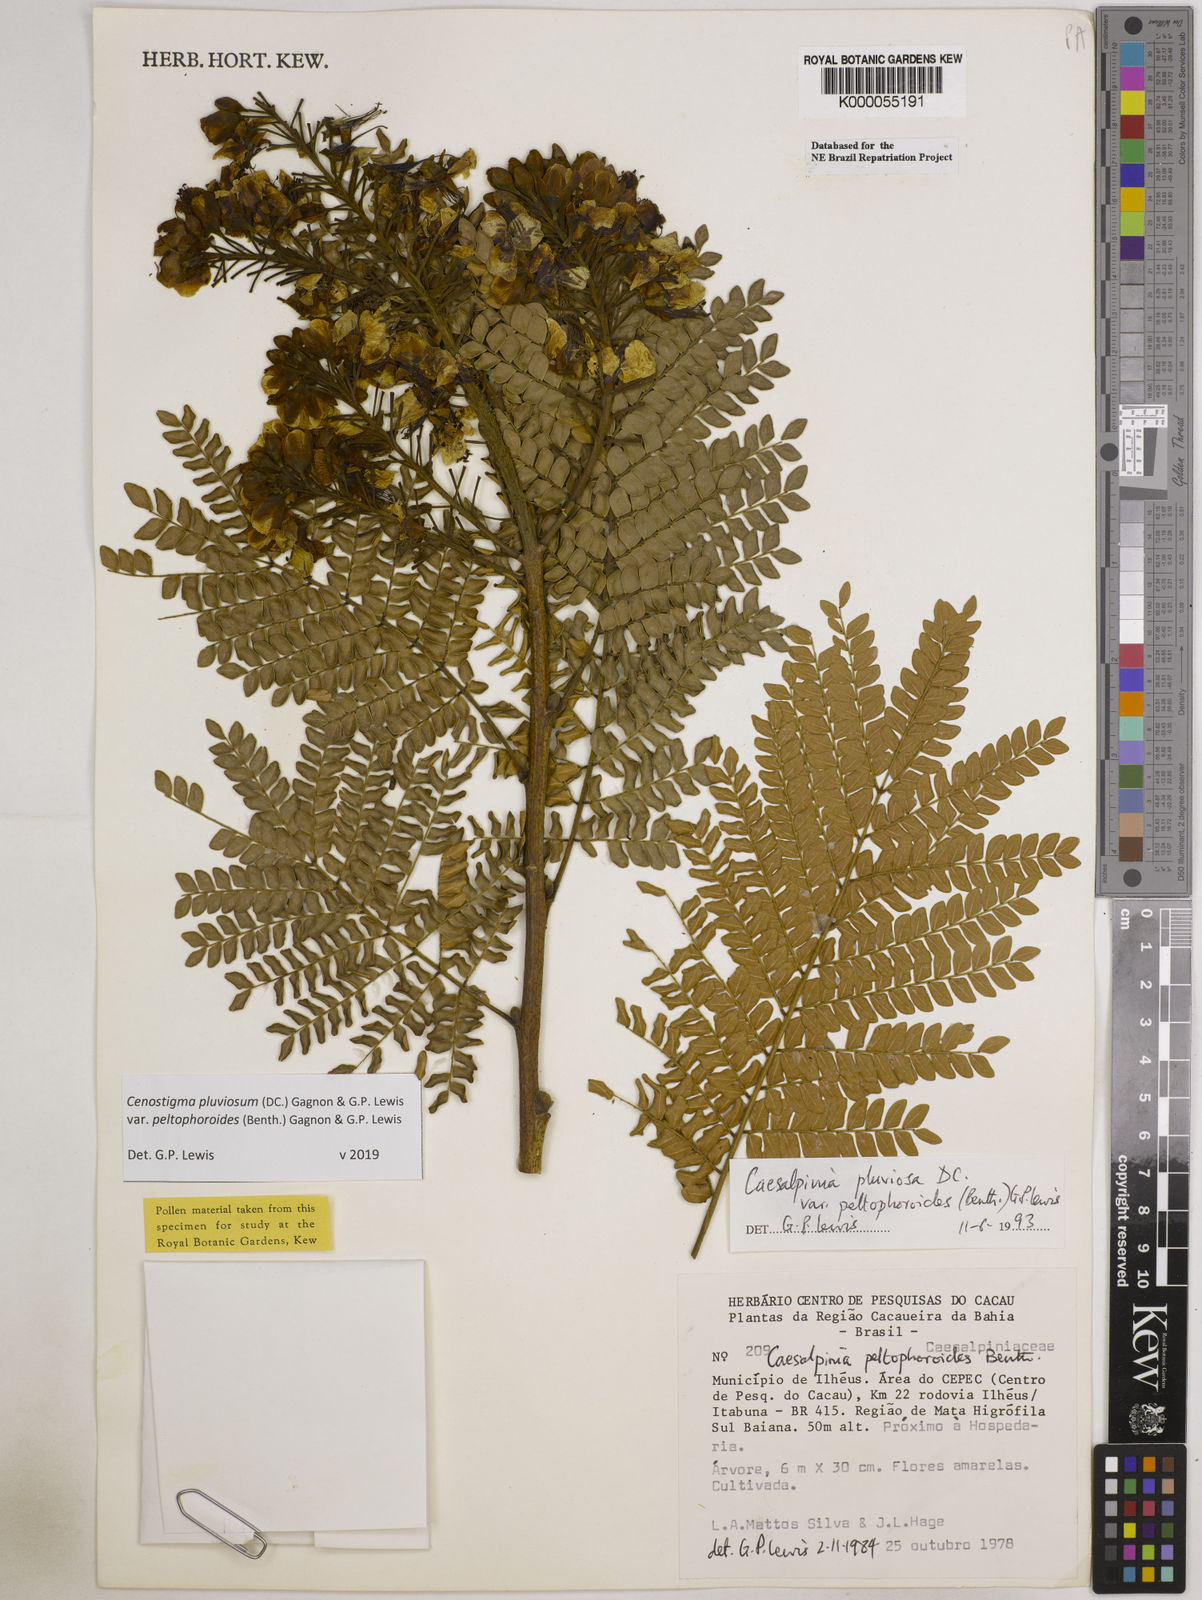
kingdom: Plantae
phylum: Tracheophyta
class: Magnoliopsida
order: Fabales
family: Fabaceae
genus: Cenostigma
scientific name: Cenostigma pluviosum
